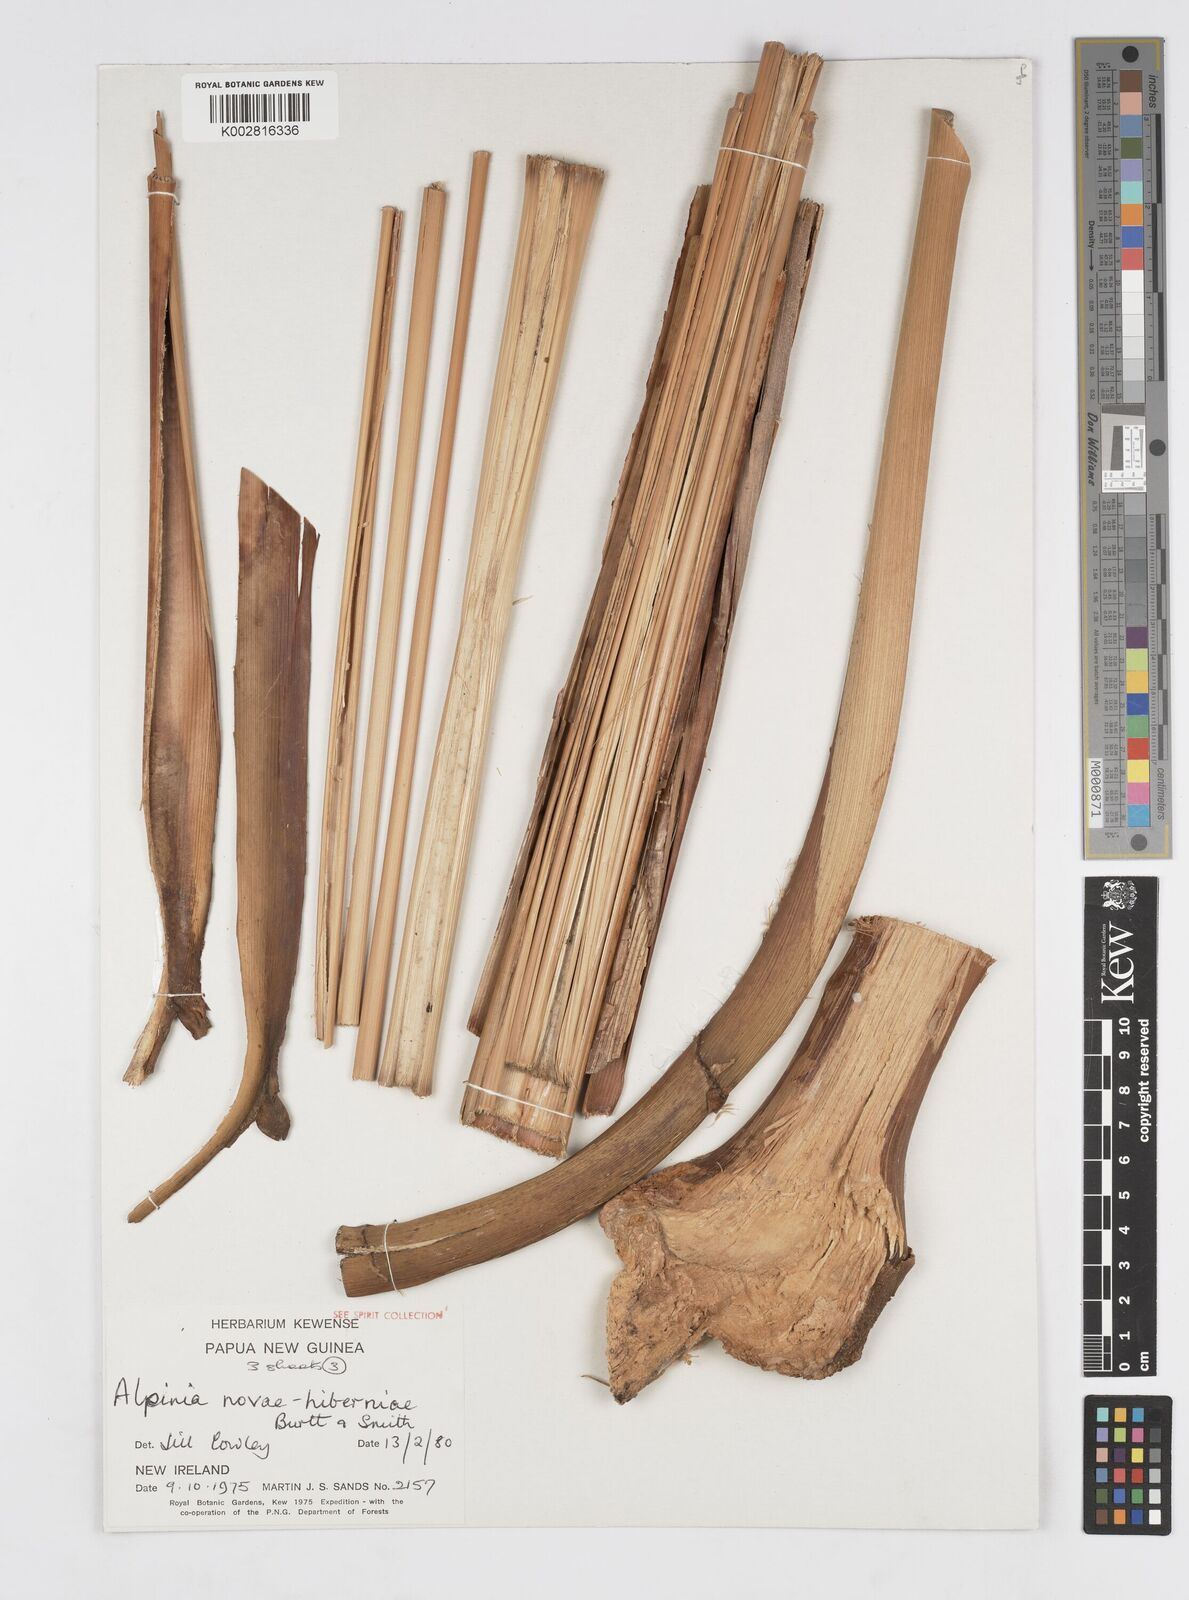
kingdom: Plantae
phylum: Tracheophyta
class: Liliopsida
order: Zingiberales
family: Zingiberaceae
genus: Alpinia
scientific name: Alpinia novae-hiberniae
